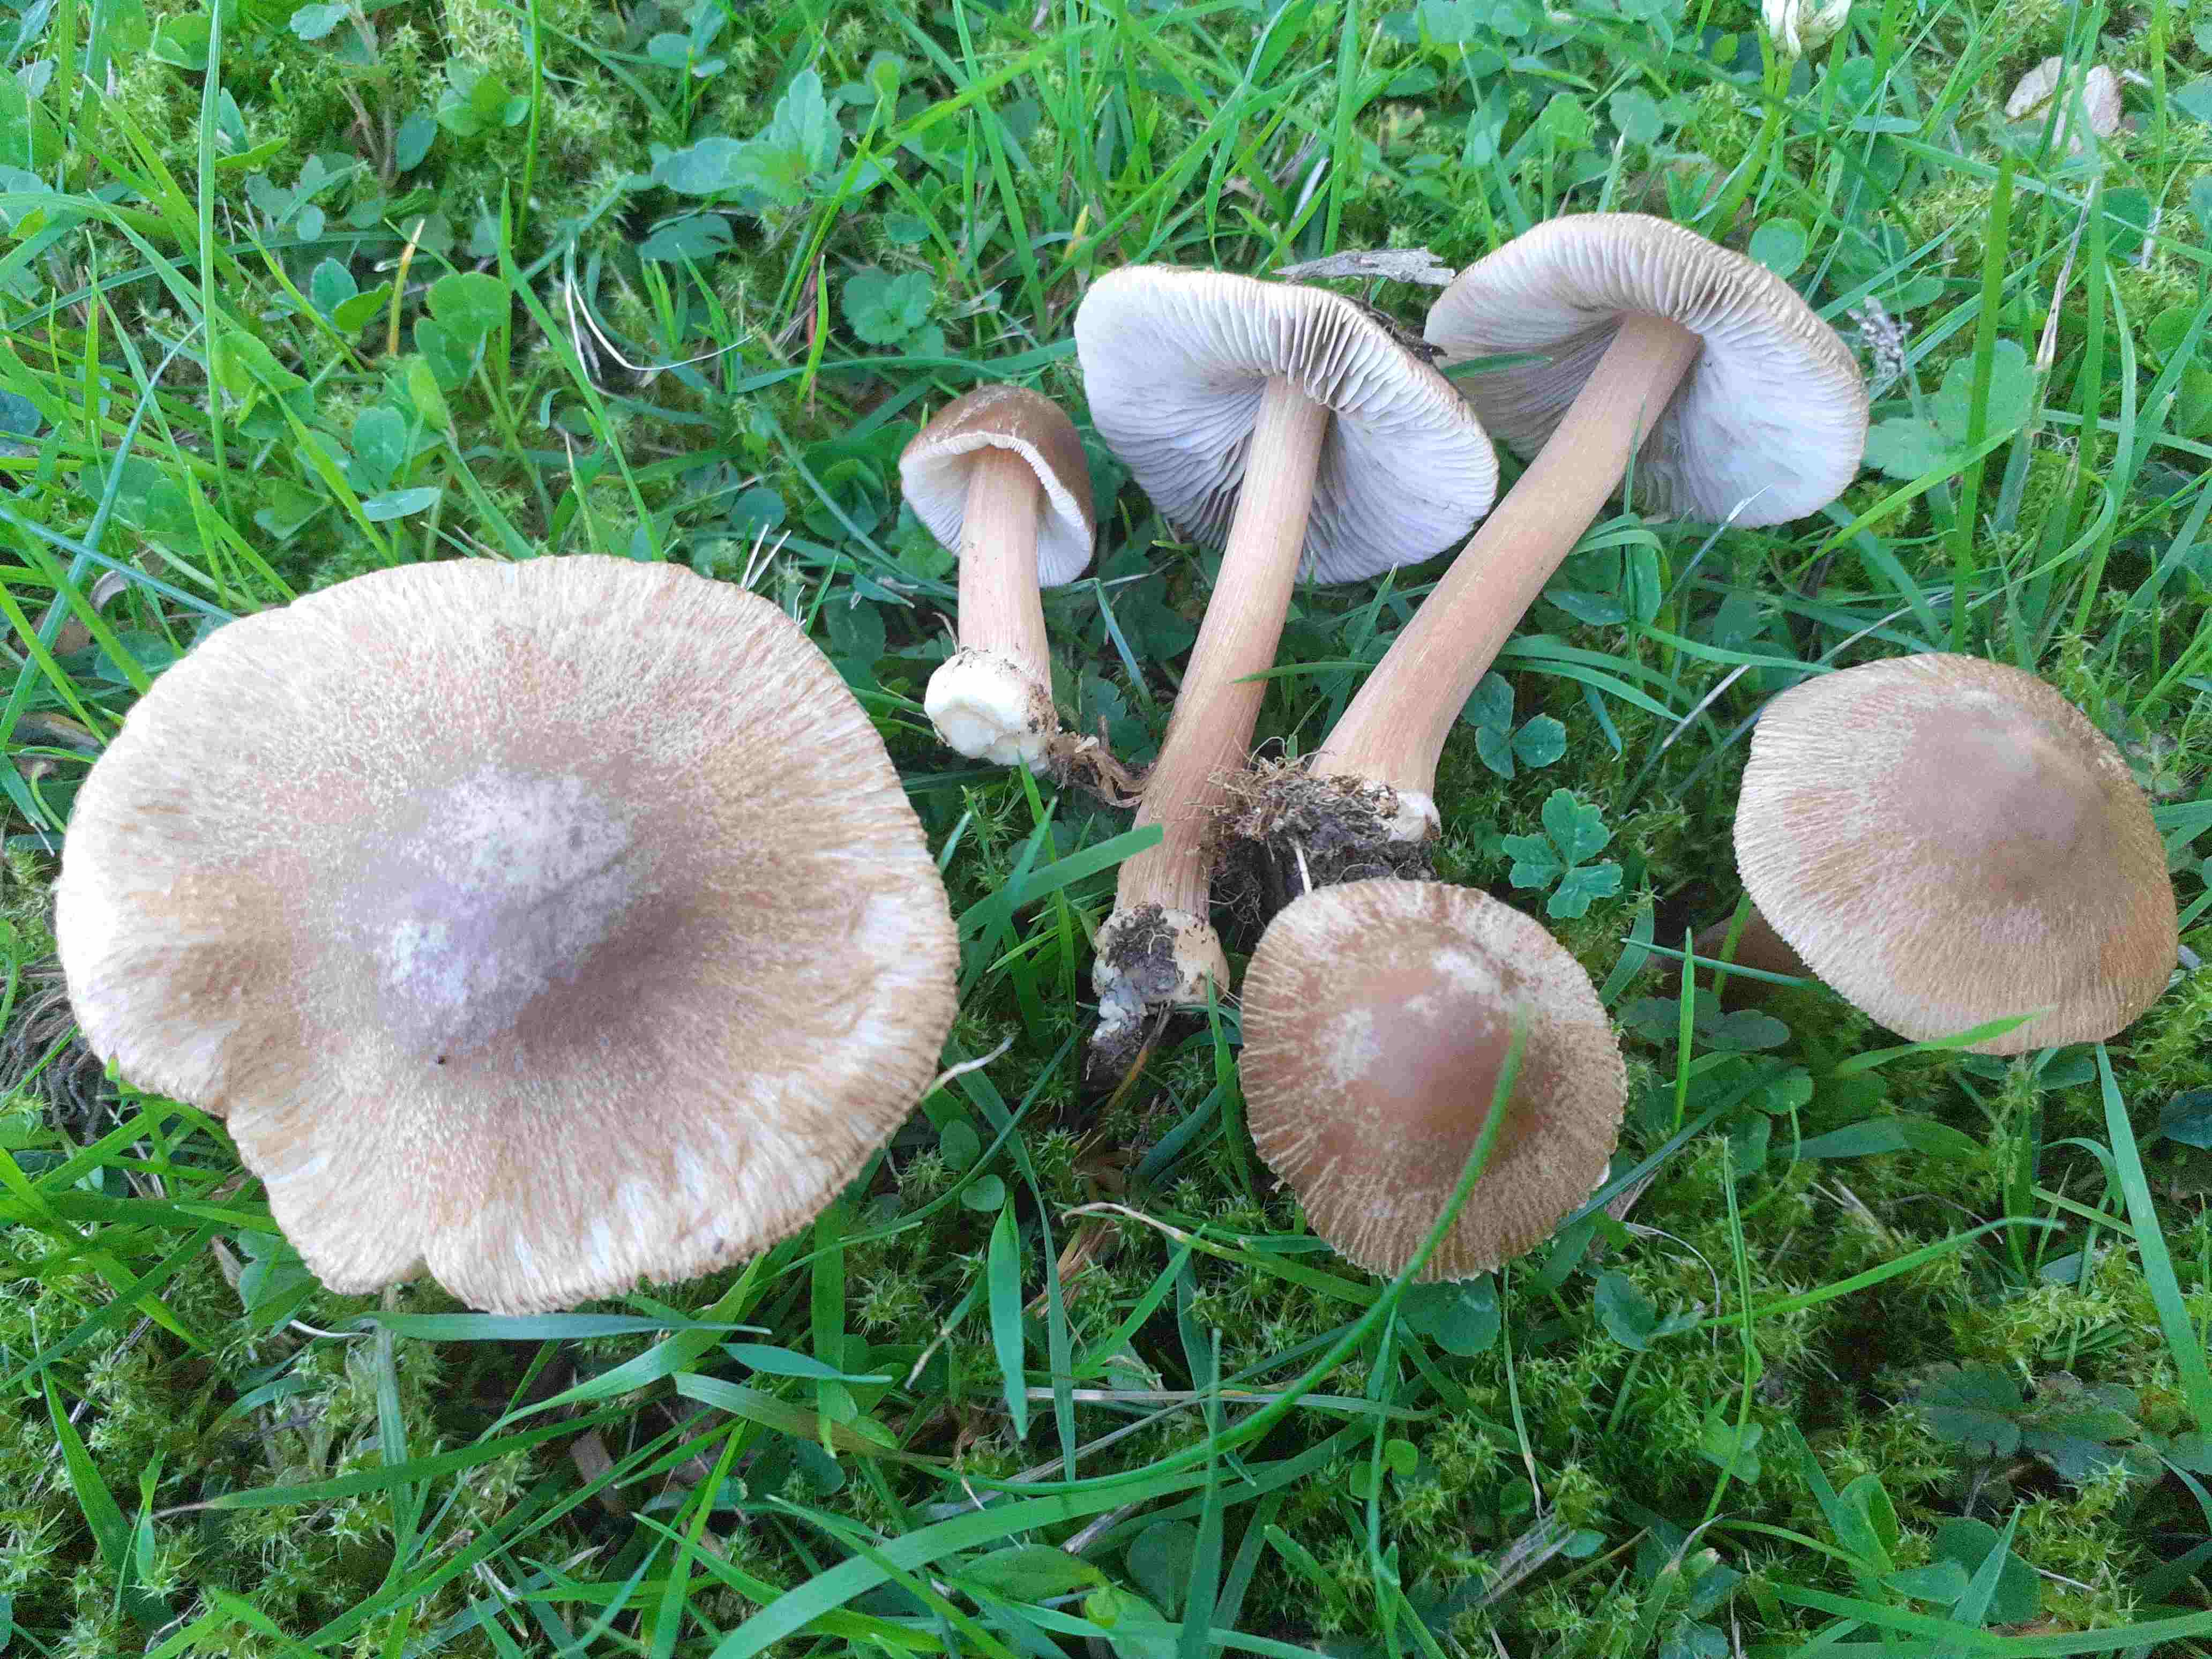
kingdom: Fungi
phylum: Basidiomycota
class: Agaricomycetes
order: Agaricales
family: Inocybaceae
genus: Inocybe
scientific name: Inocybe asterospora
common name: stjernesporet trævlhat
